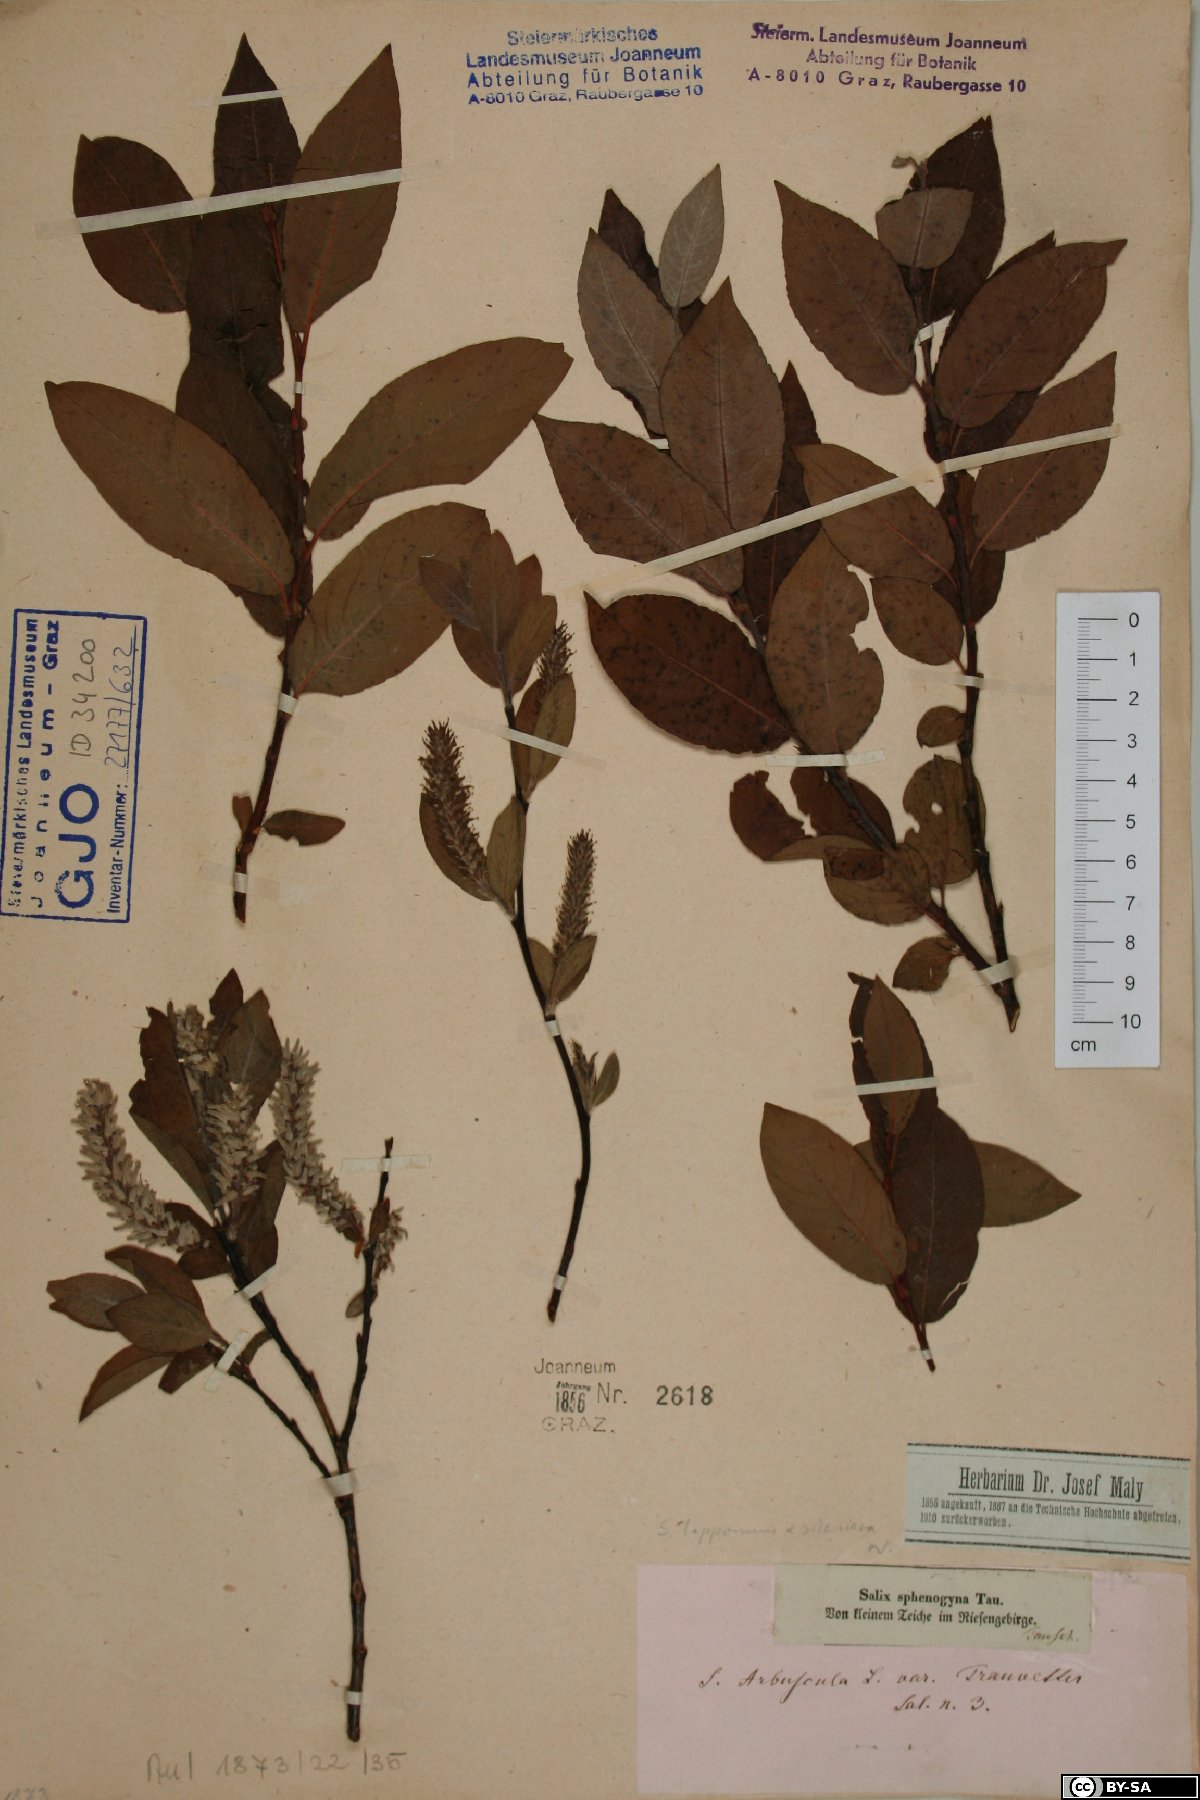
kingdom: Plantae
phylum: Tracheophyta
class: Magnoliopsida
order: Malpighiales
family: Salicaceae
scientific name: Salicaceae
